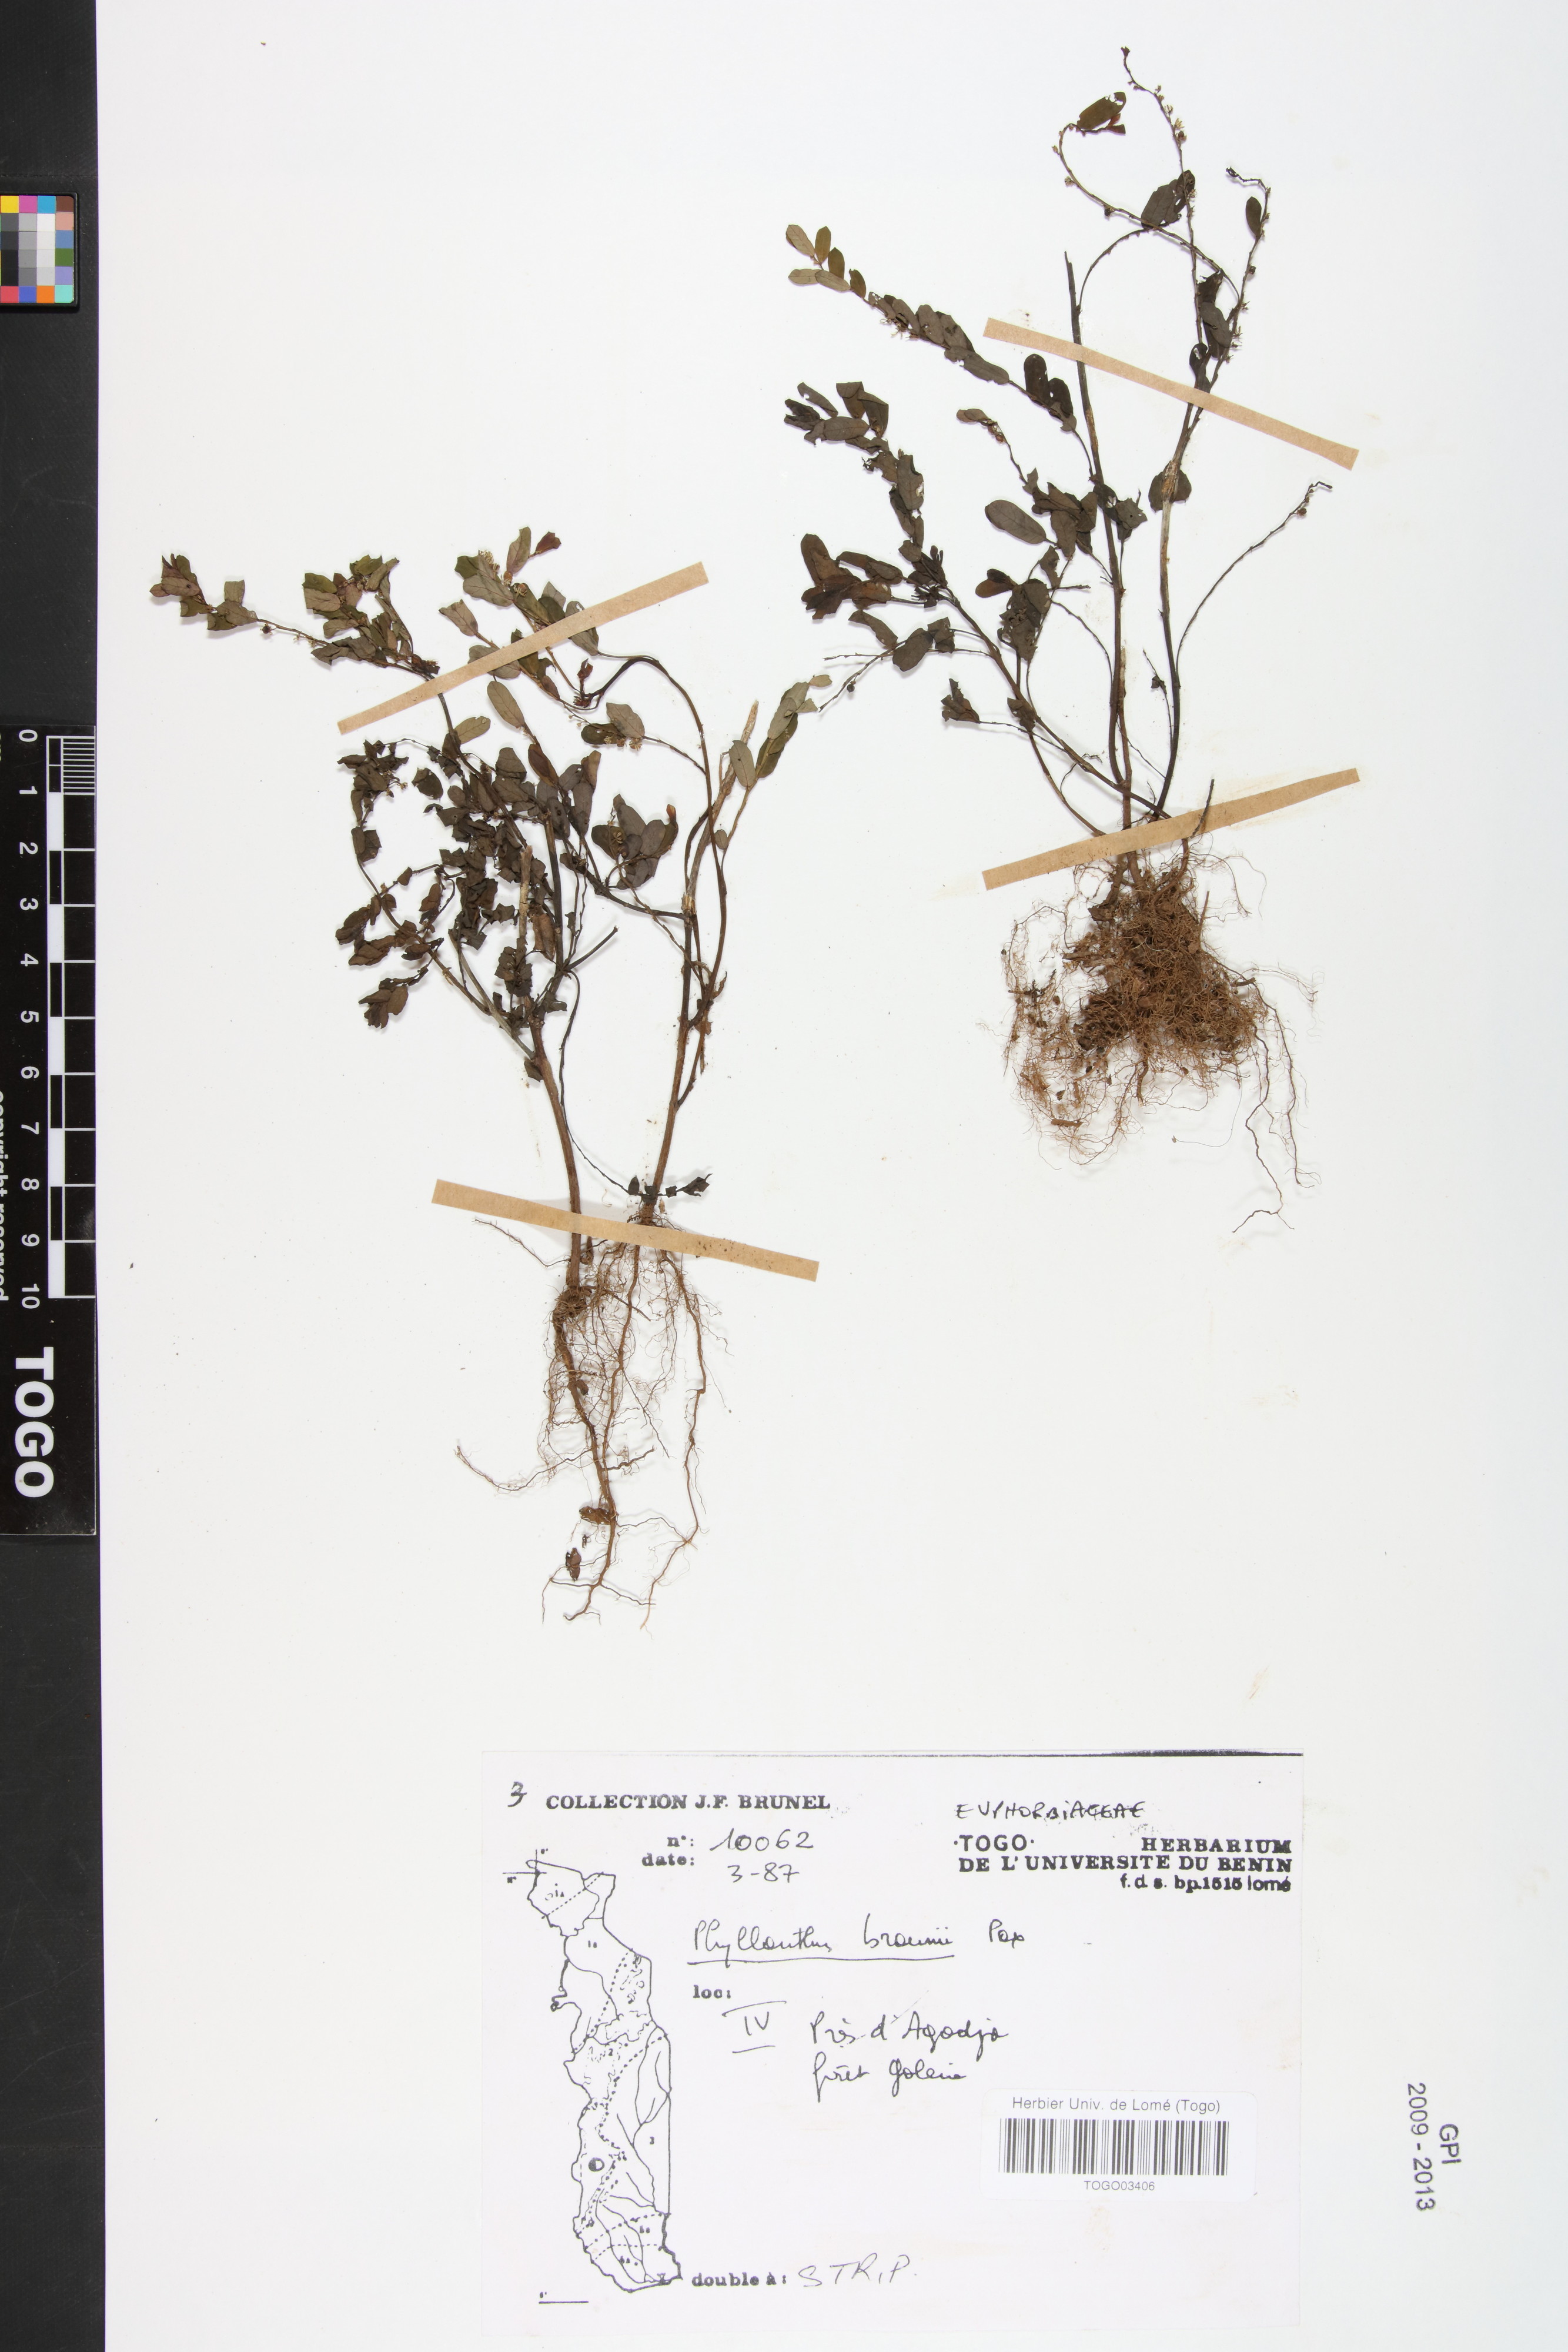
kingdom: Plantae
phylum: Tracheophyta
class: Magnoliopsida
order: Malpighiales
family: Phyllanthaceae
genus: Phyllanthus
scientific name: Phyllanthus odontadenius
